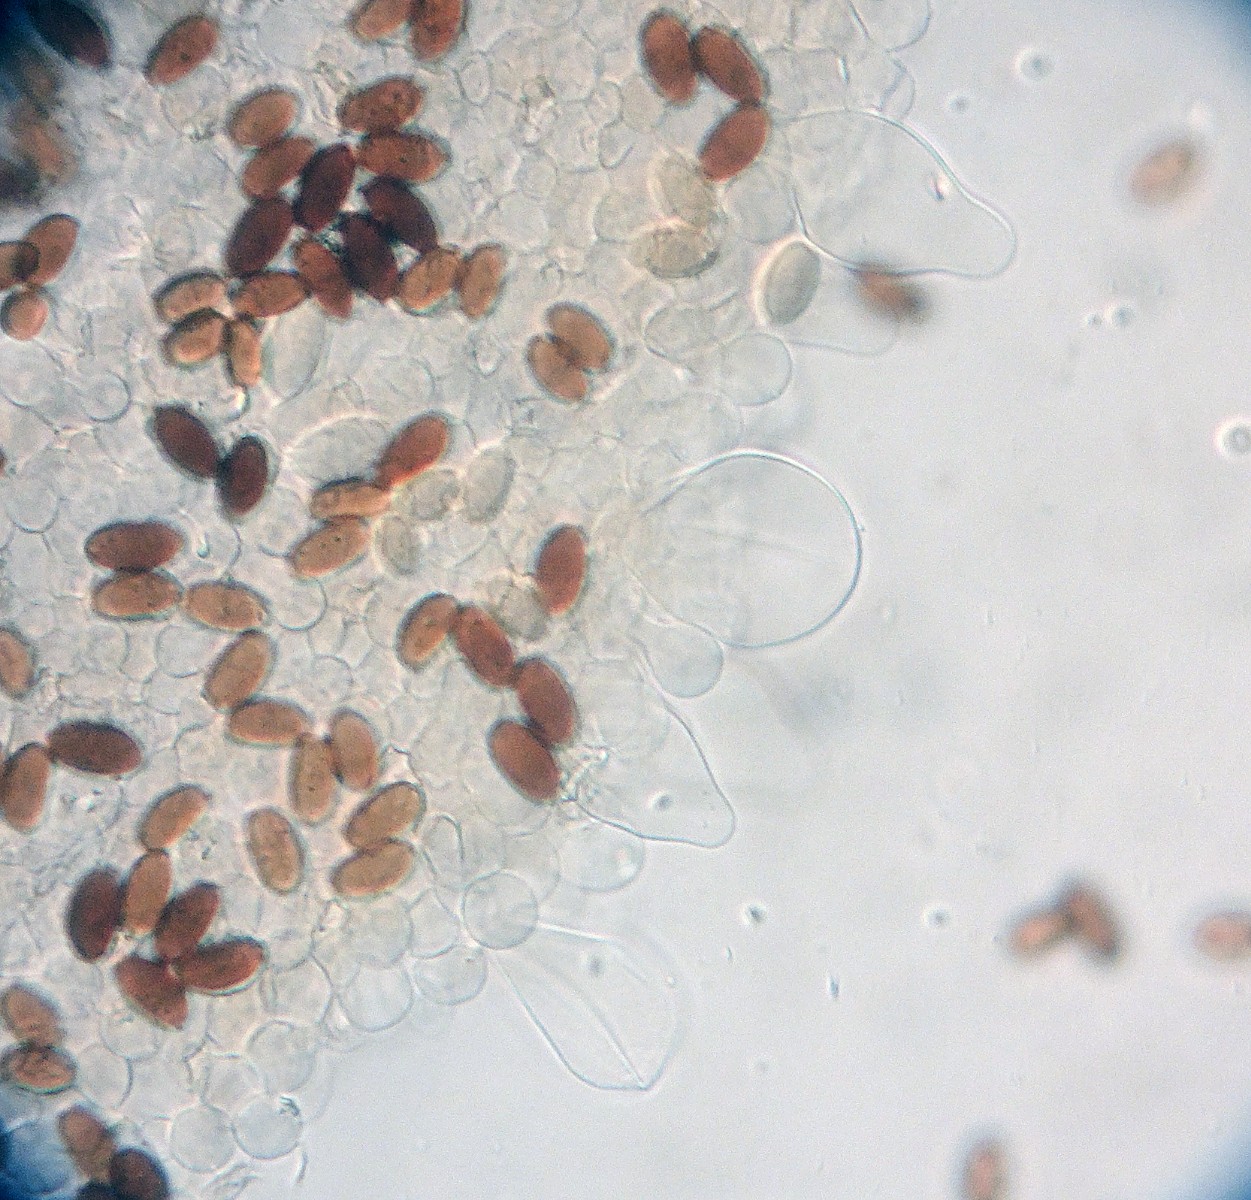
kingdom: Fungi
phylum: Basidiomycota
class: Agaricomycetes
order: Agaricales
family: Psathyrellaceae
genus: Parasola
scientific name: Parasola conopilea
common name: kegle-hjulhat
